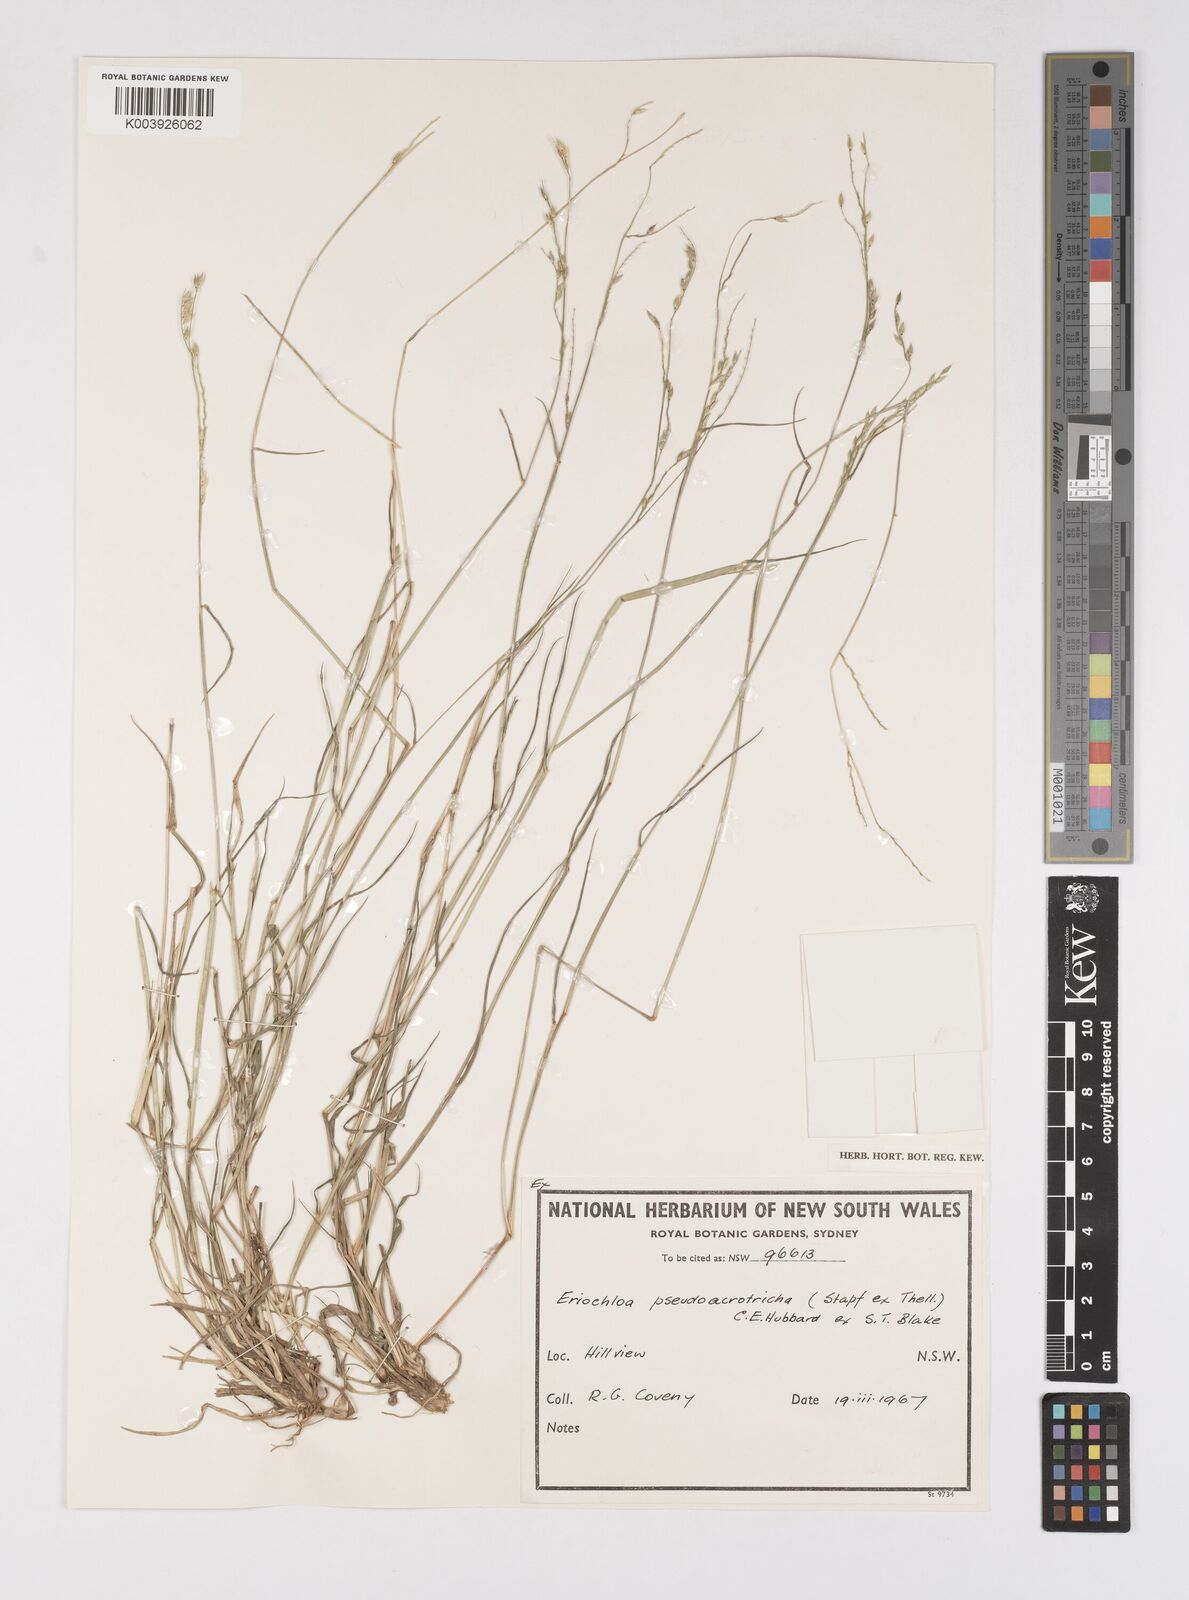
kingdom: Plantae
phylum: Tracheophyta
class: Liliopsida
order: Poales
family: Poaceae
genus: Eriochloa
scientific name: Eriochloa pseudoacrotricha
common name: Perennial cup-grass
